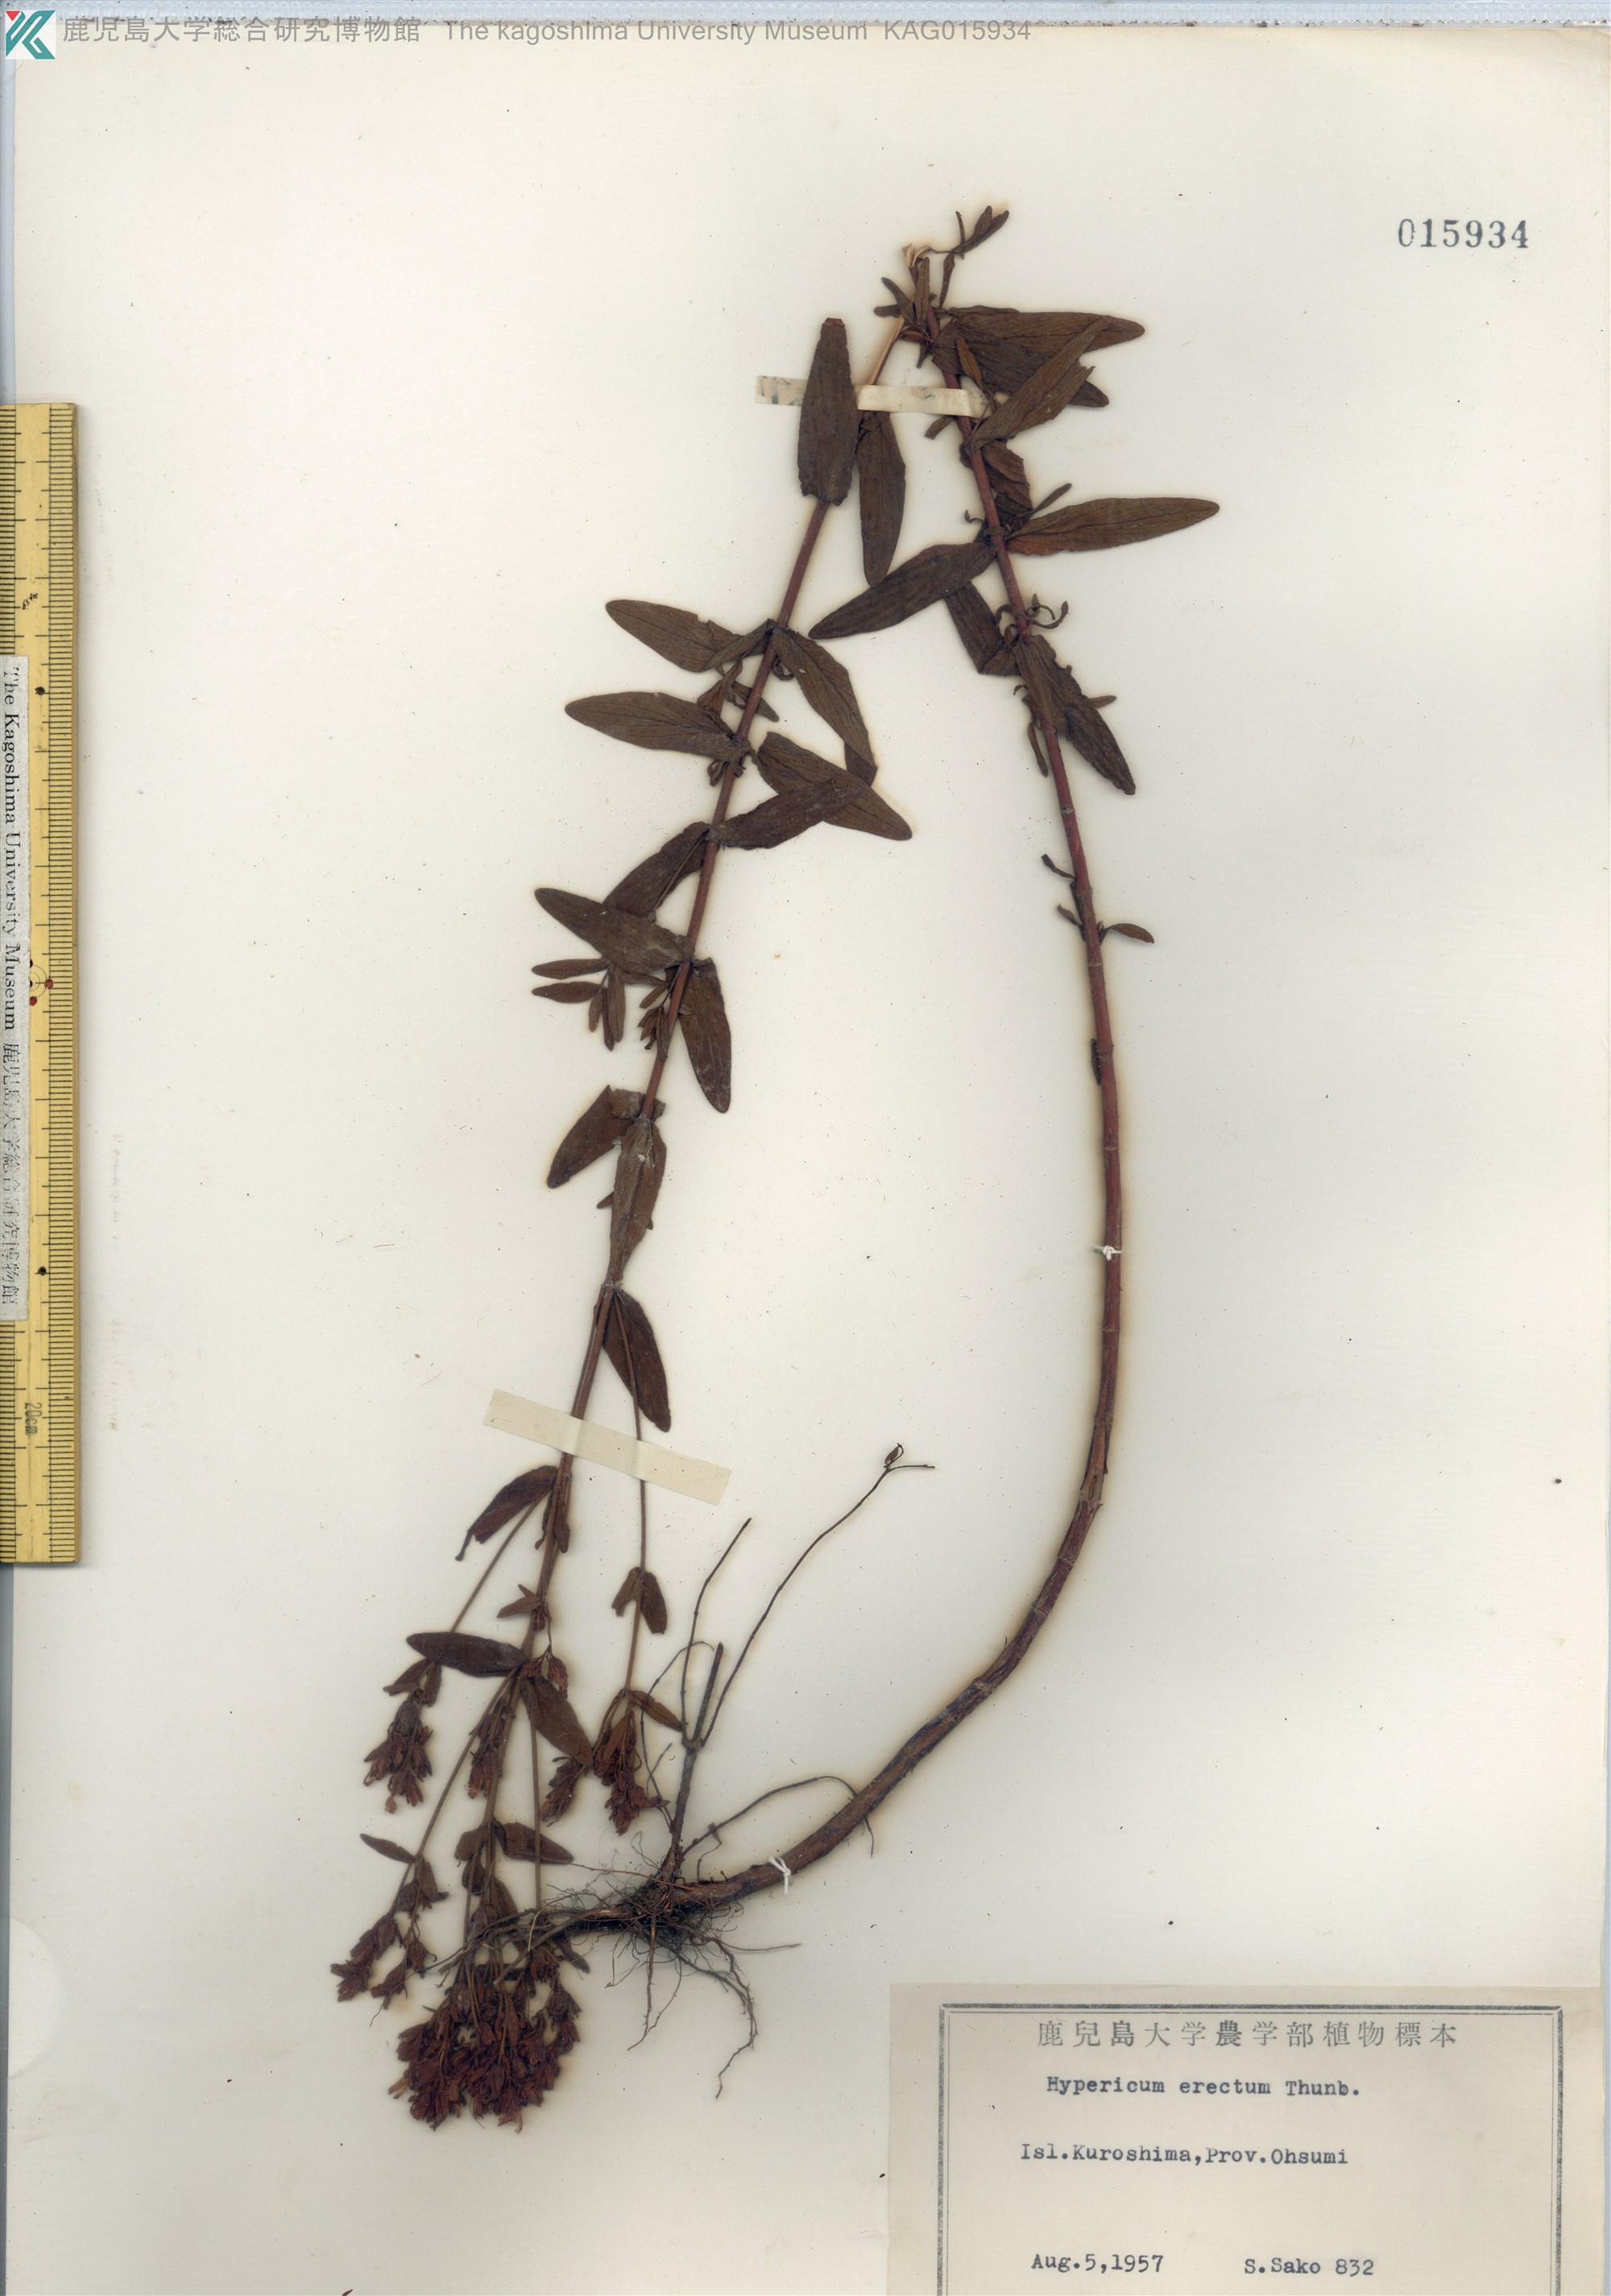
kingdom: Plantae
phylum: Tracheophyta
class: Magnoliopsida
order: Malpighiales
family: Hypericaceae
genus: Hypericum
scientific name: Hypericum erectum
